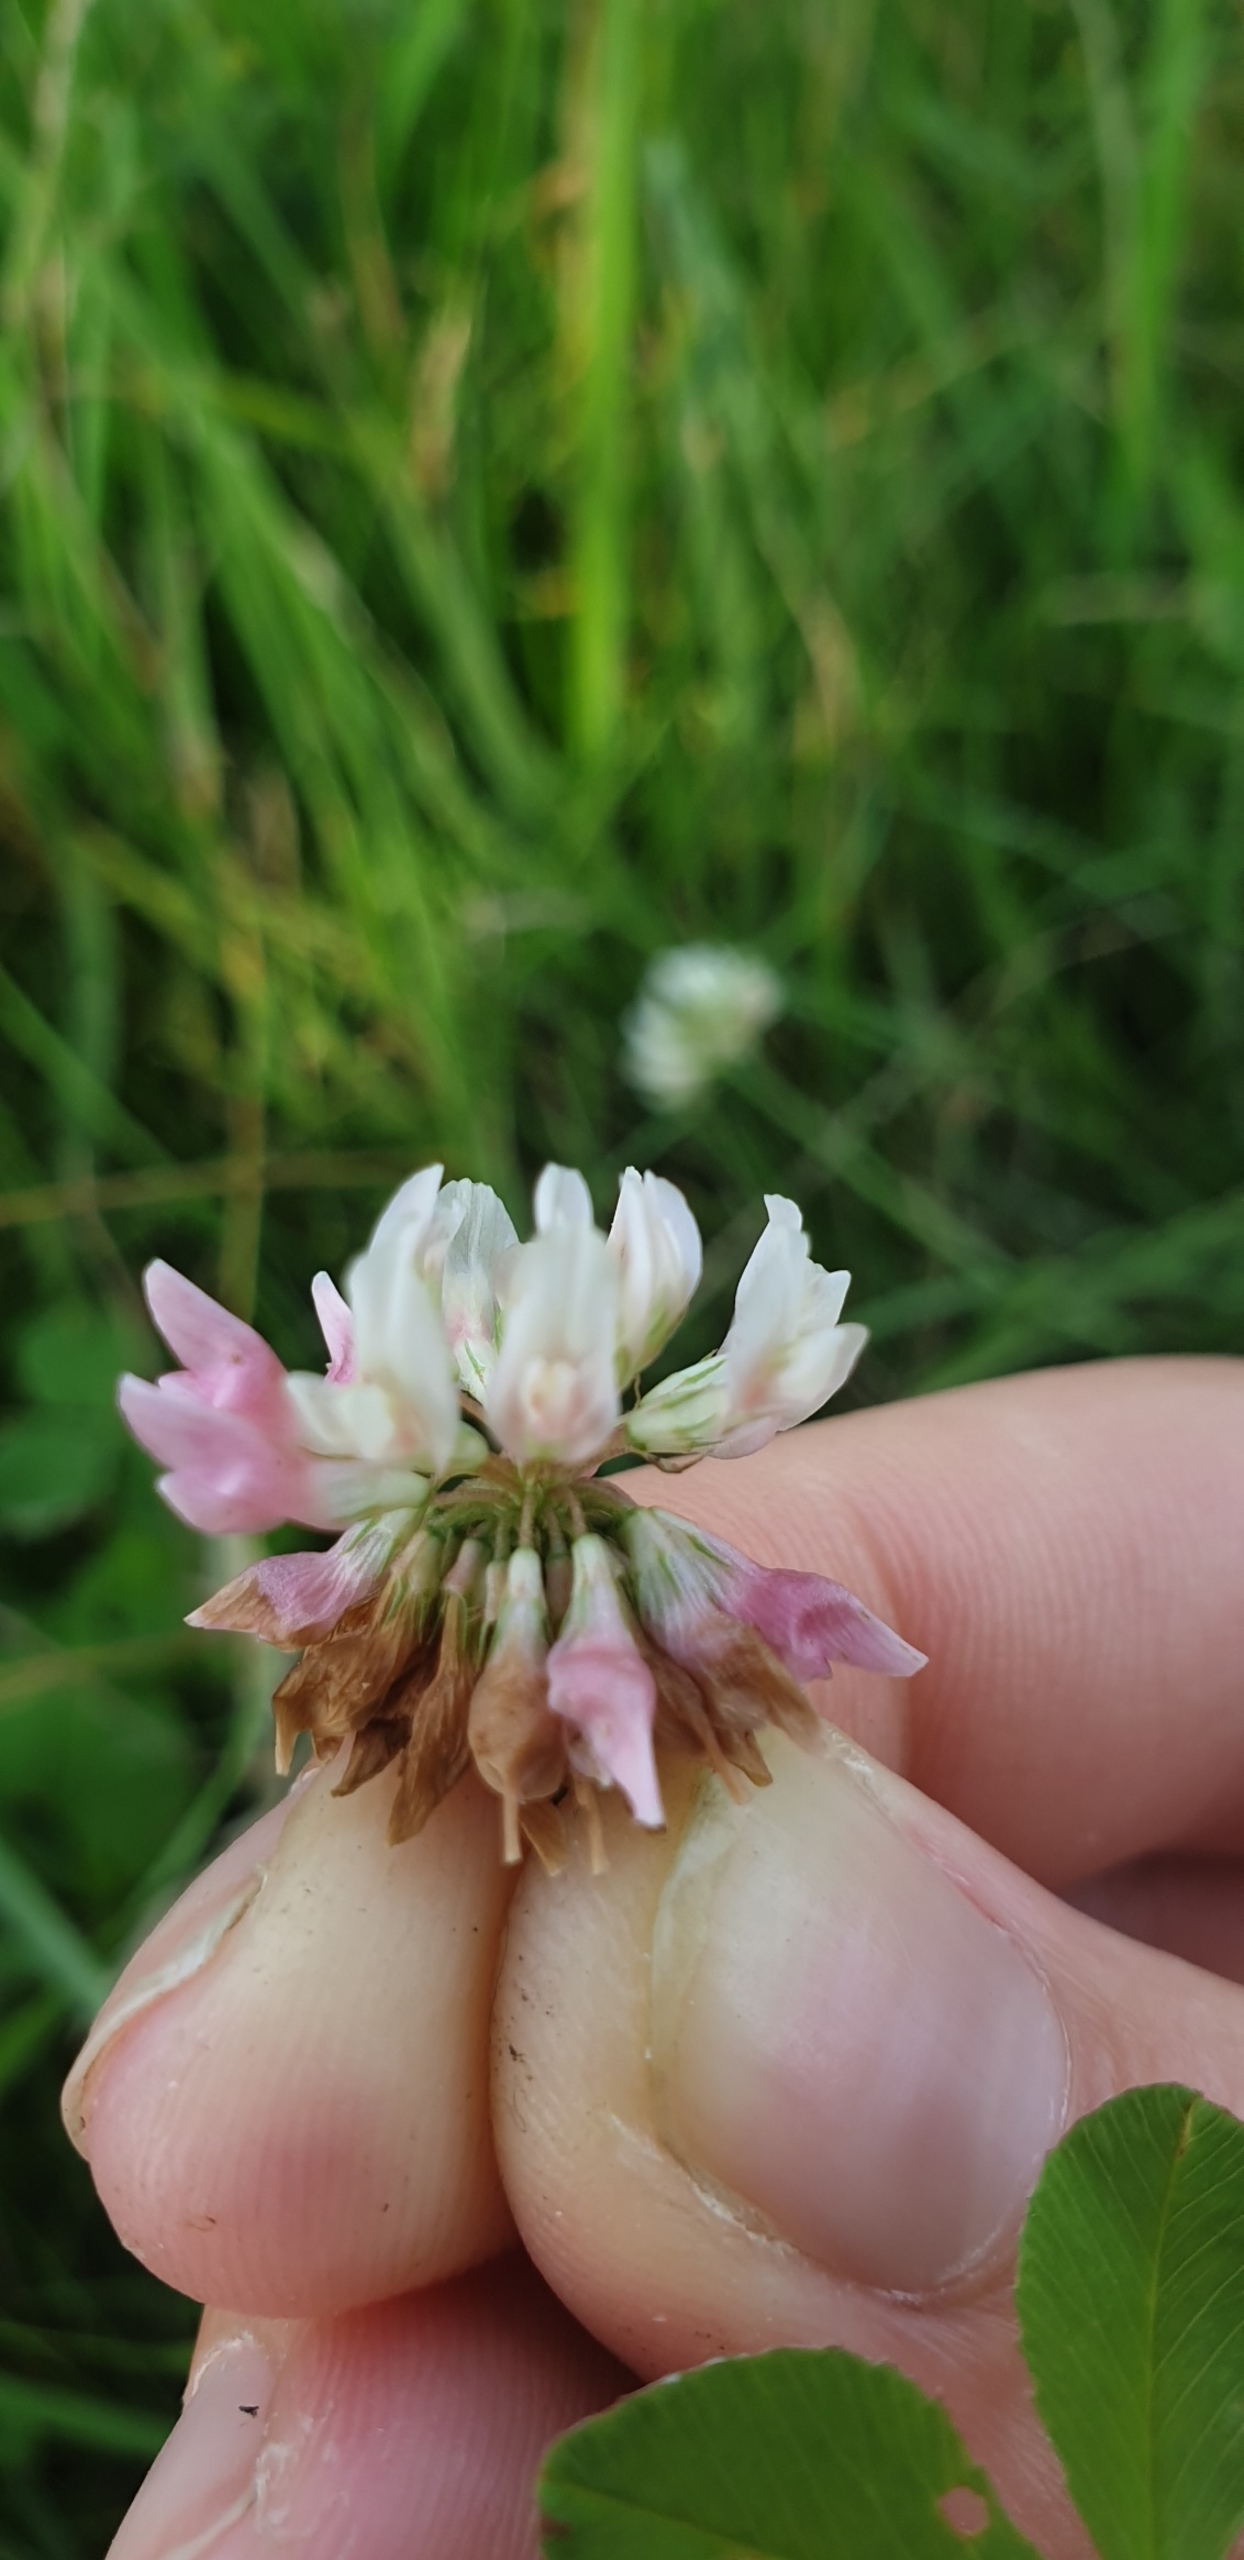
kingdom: Plantae
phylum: Tracheophyta
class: Magnoliopsida
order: Fabales
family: Fabaceae
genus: Trifolium
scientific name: Trifolium hybridum
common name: Alsike-kløver
